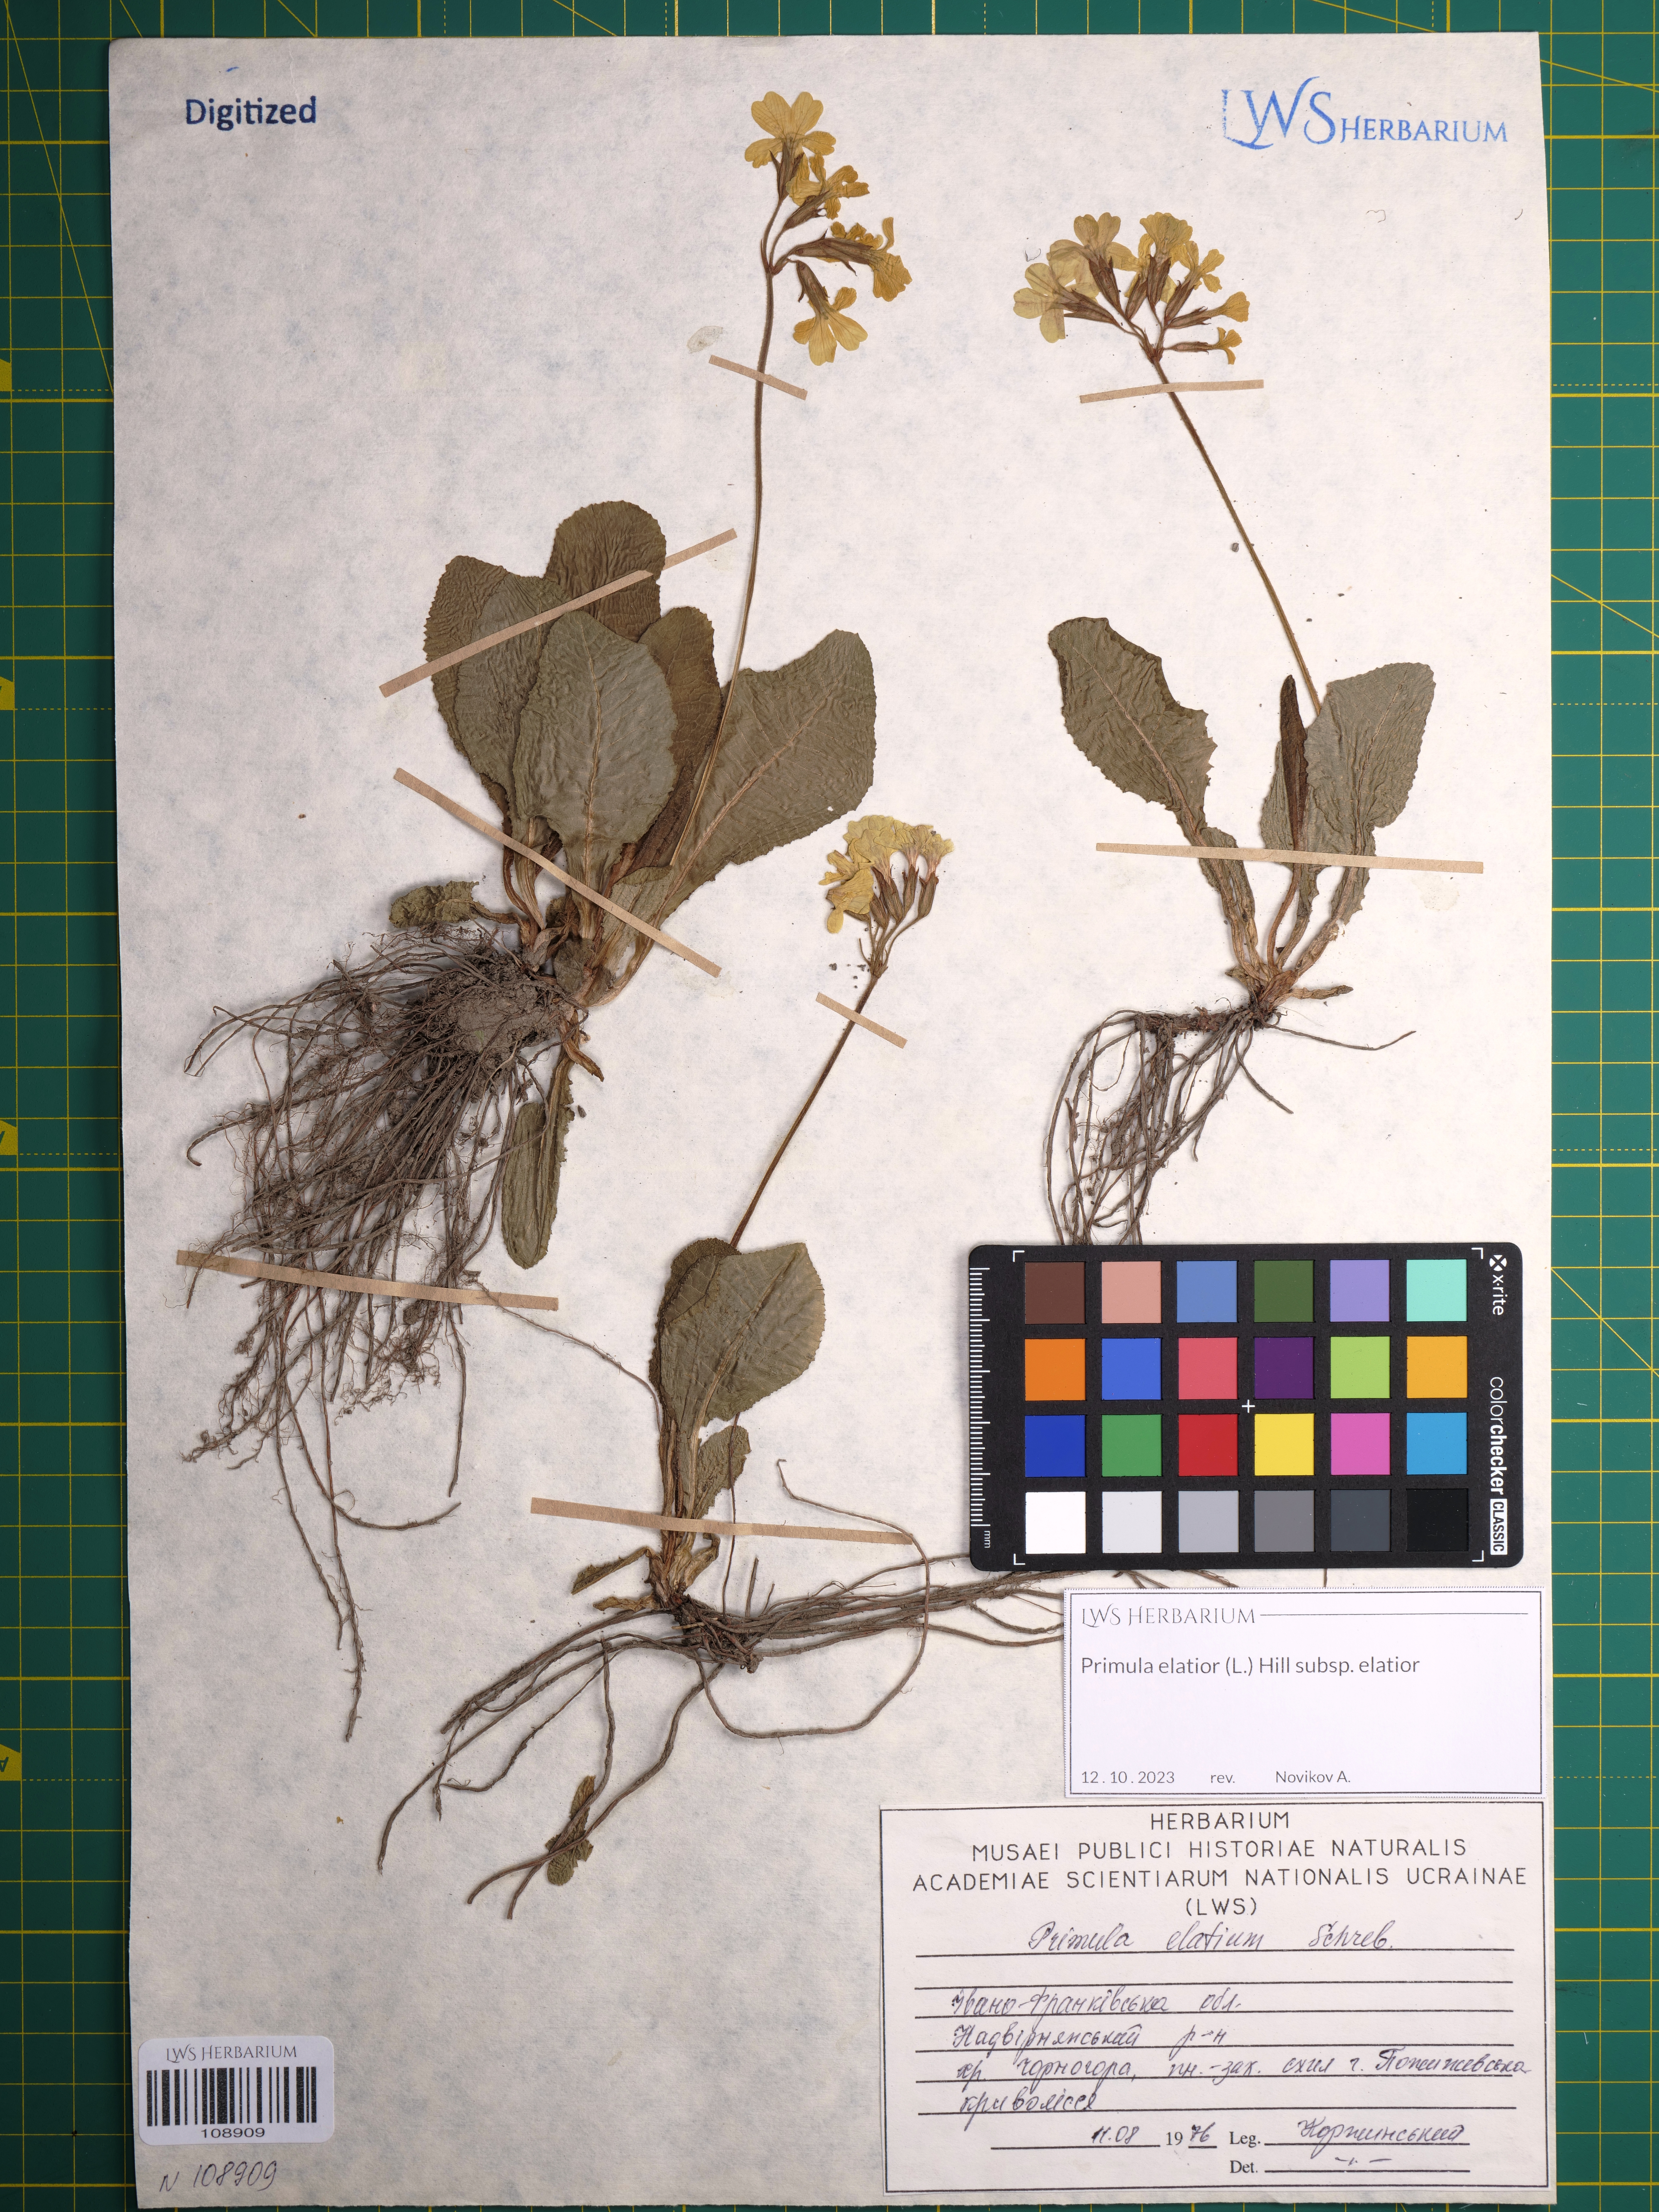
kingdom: Plantae
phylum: Tracheophyta
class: Magnoliopsida
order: Ericales
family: Primulaceae
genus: Primula
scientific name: Primula elatior
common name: Oxlip
